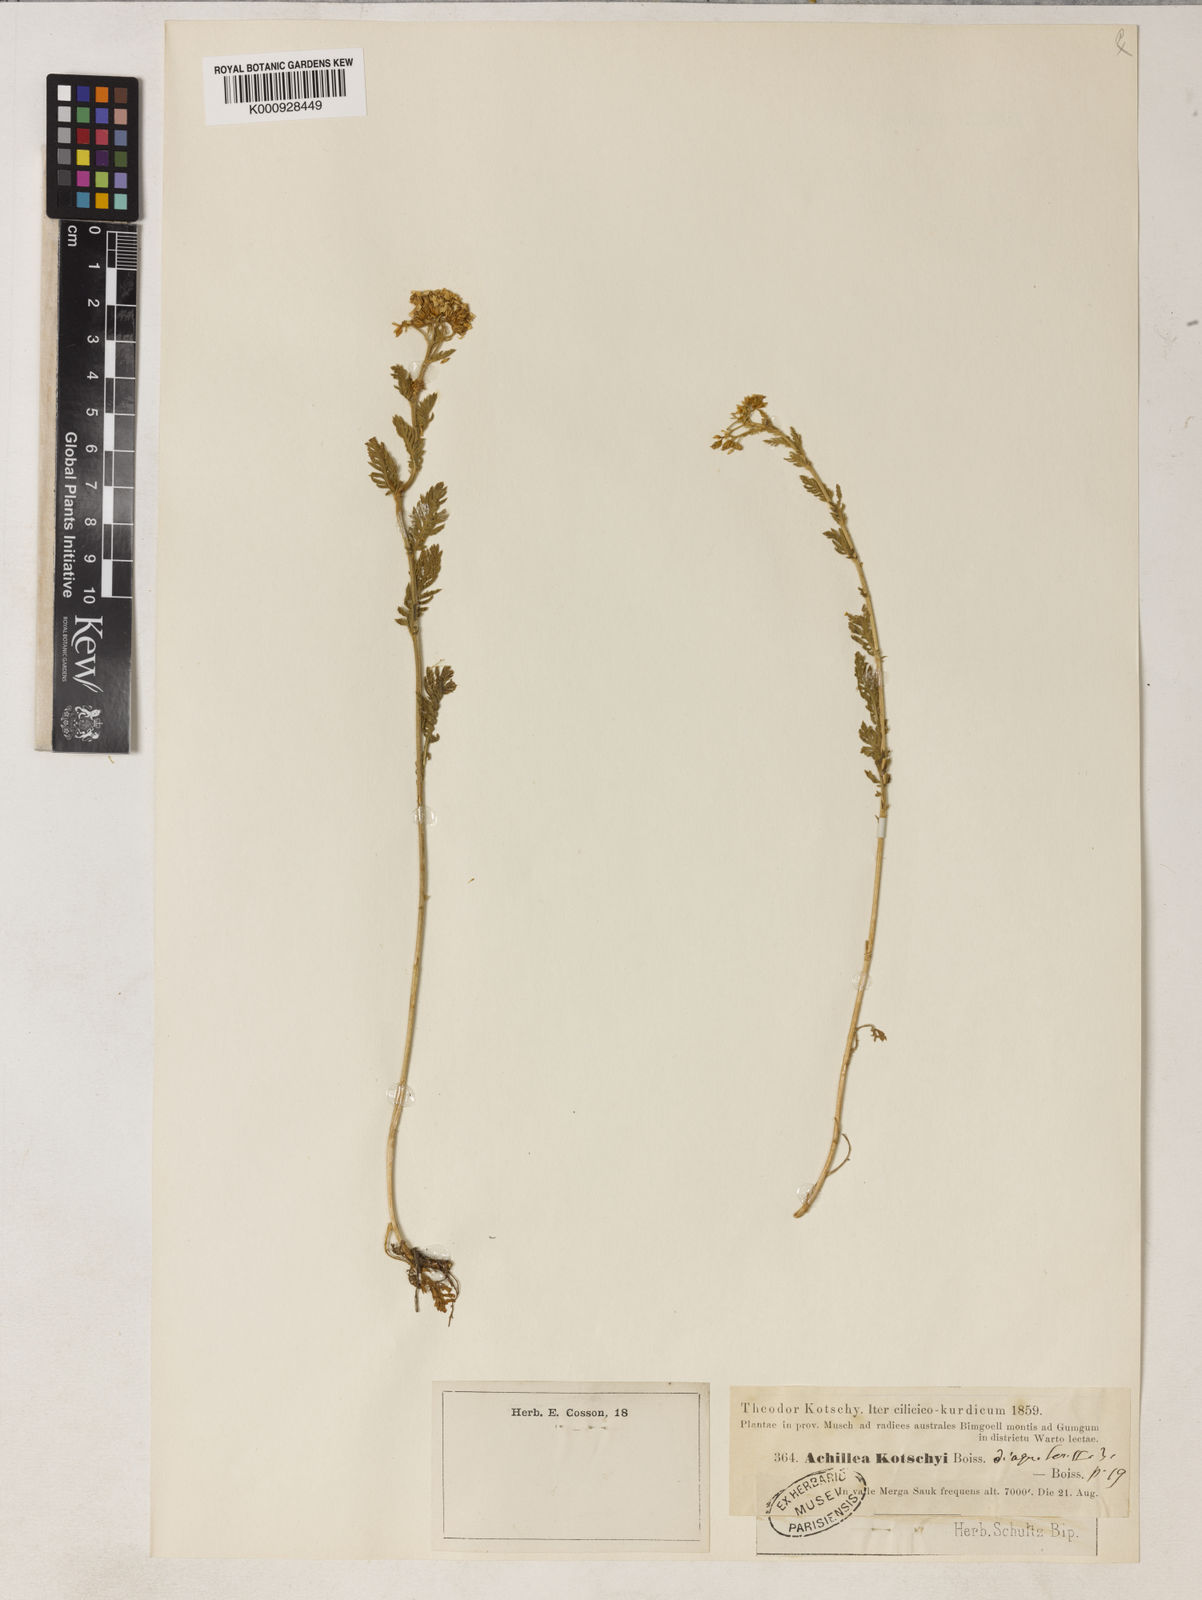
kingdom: Plantae
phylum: Tracheophyta
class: Magnoliopsida
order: Asterales
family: Asteraceae
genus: Achillea
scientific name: Achillea odorata
